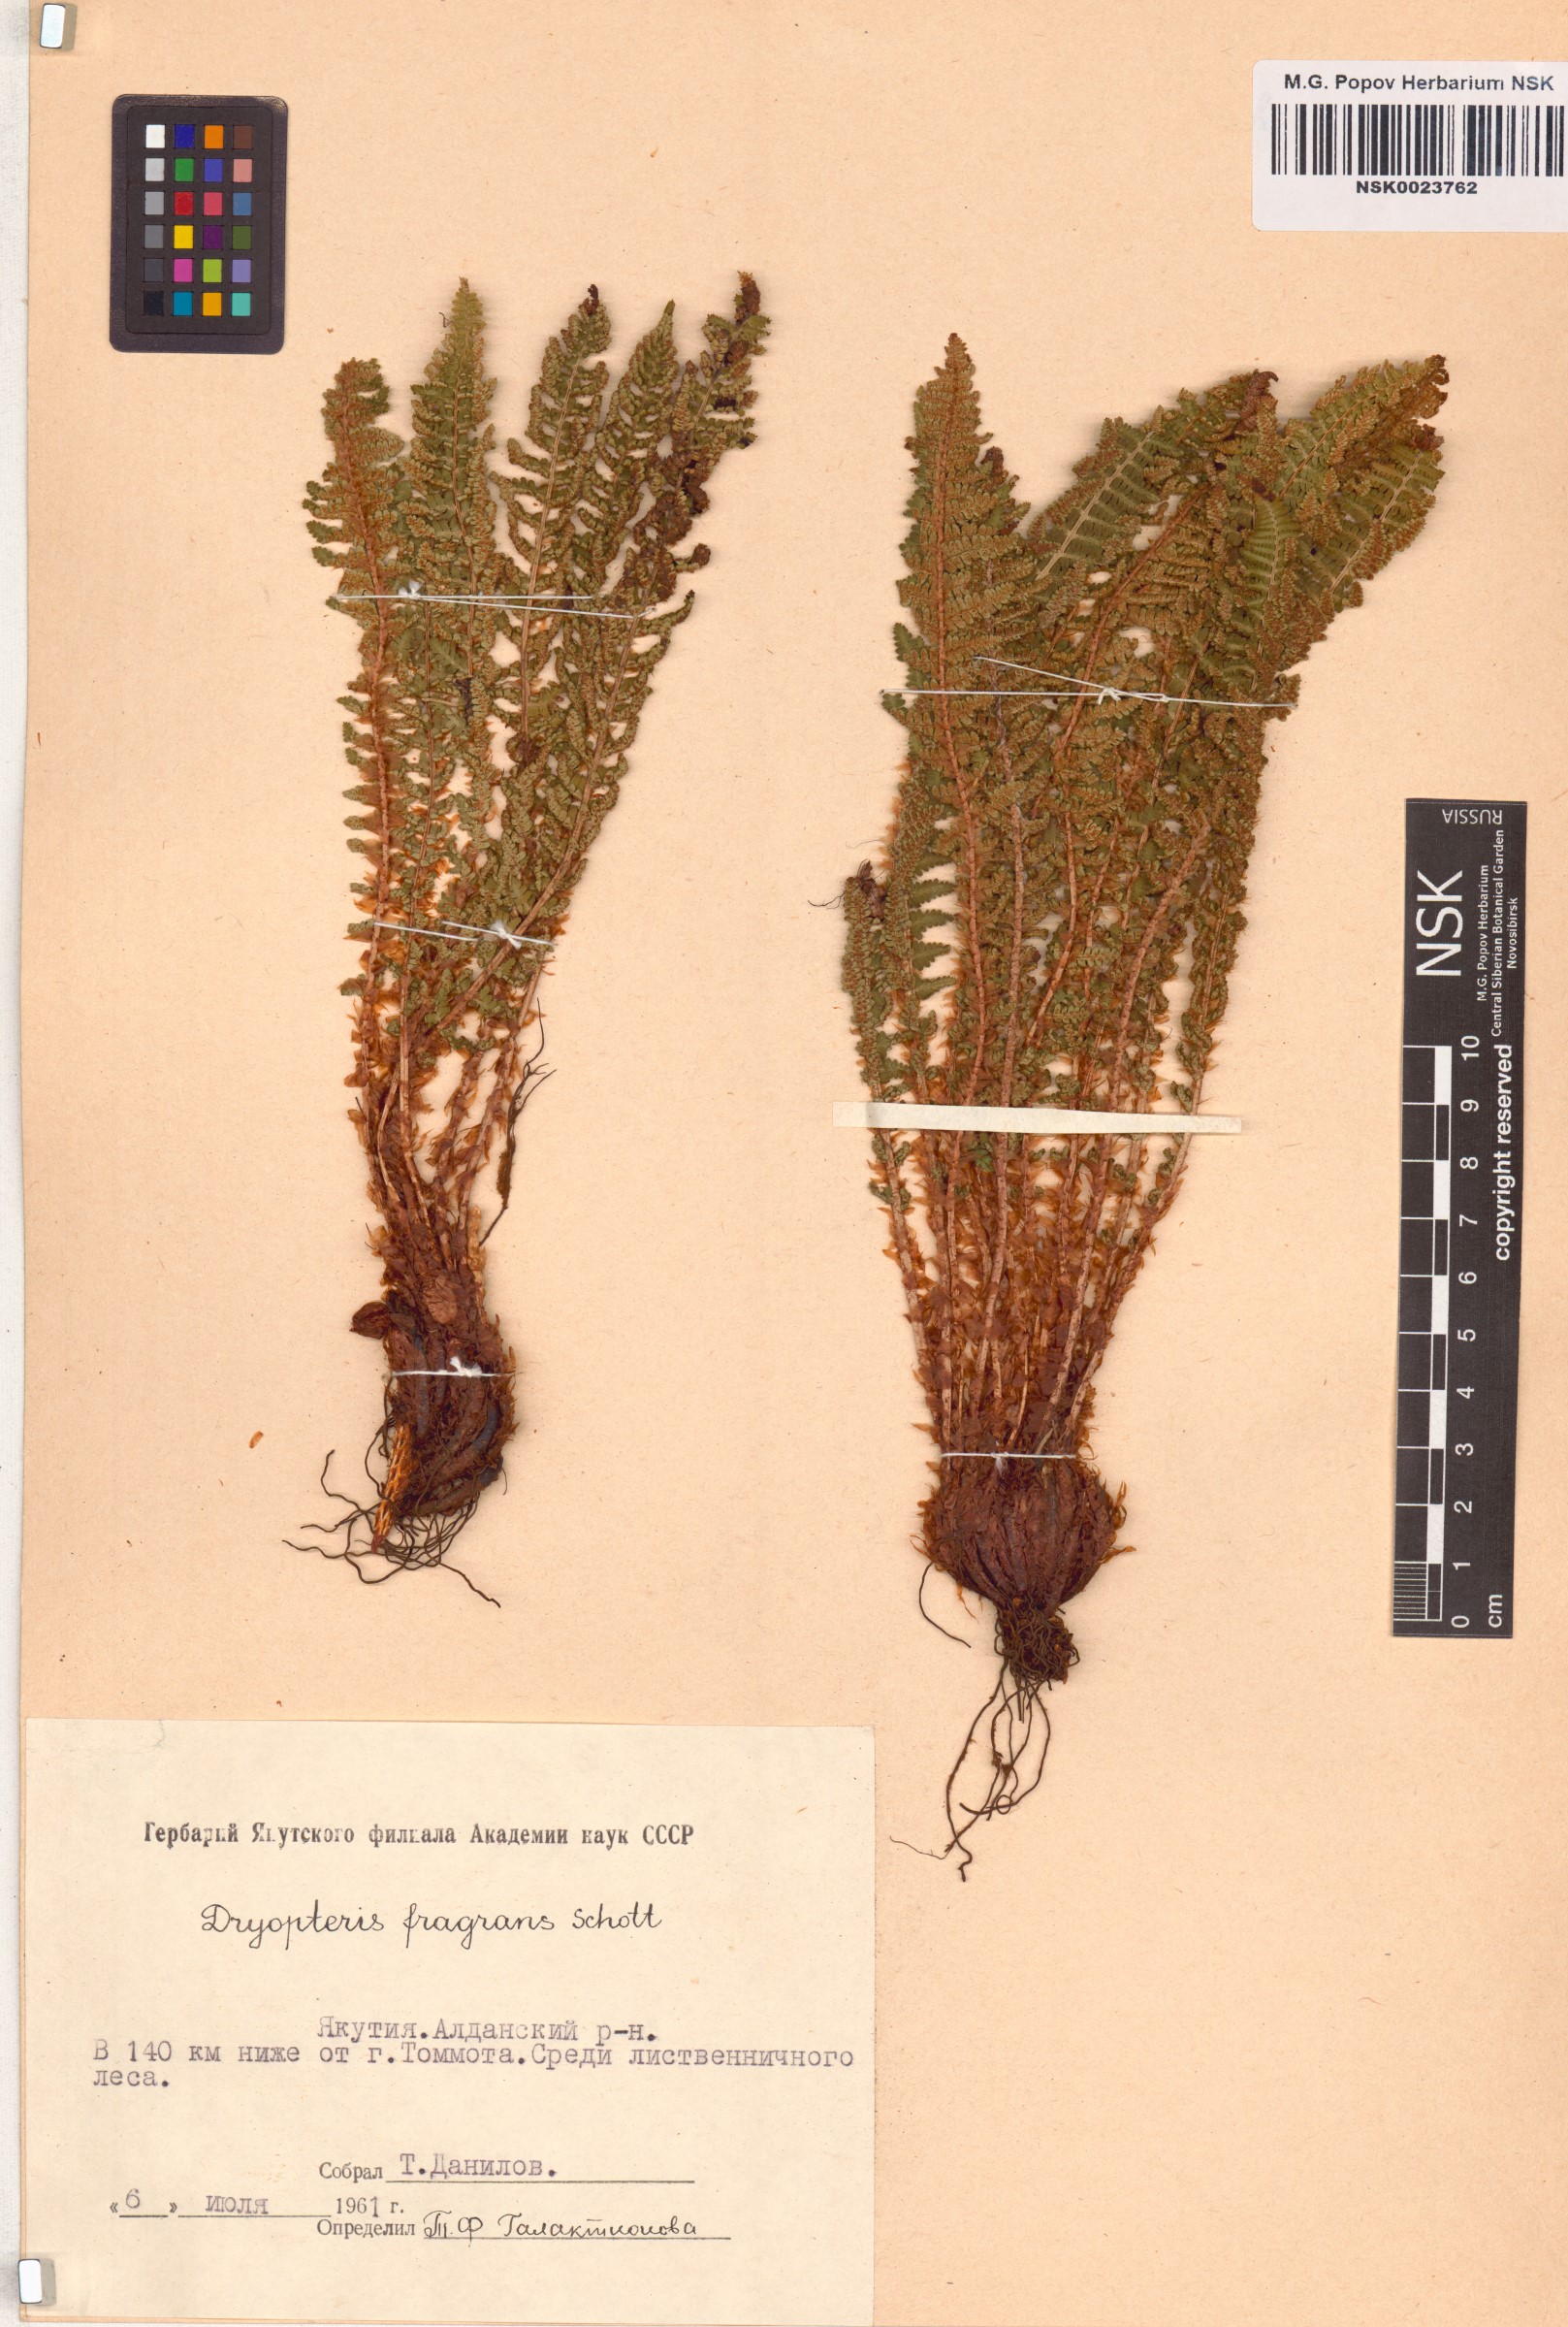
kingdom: Plantae
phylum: Tracheophyta
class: Polypodiopsida
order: Polypodiales
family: Dryopteridaceae
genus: Dryopteris
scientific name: Dryopteris fragrans
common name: Fragrant wood fern
